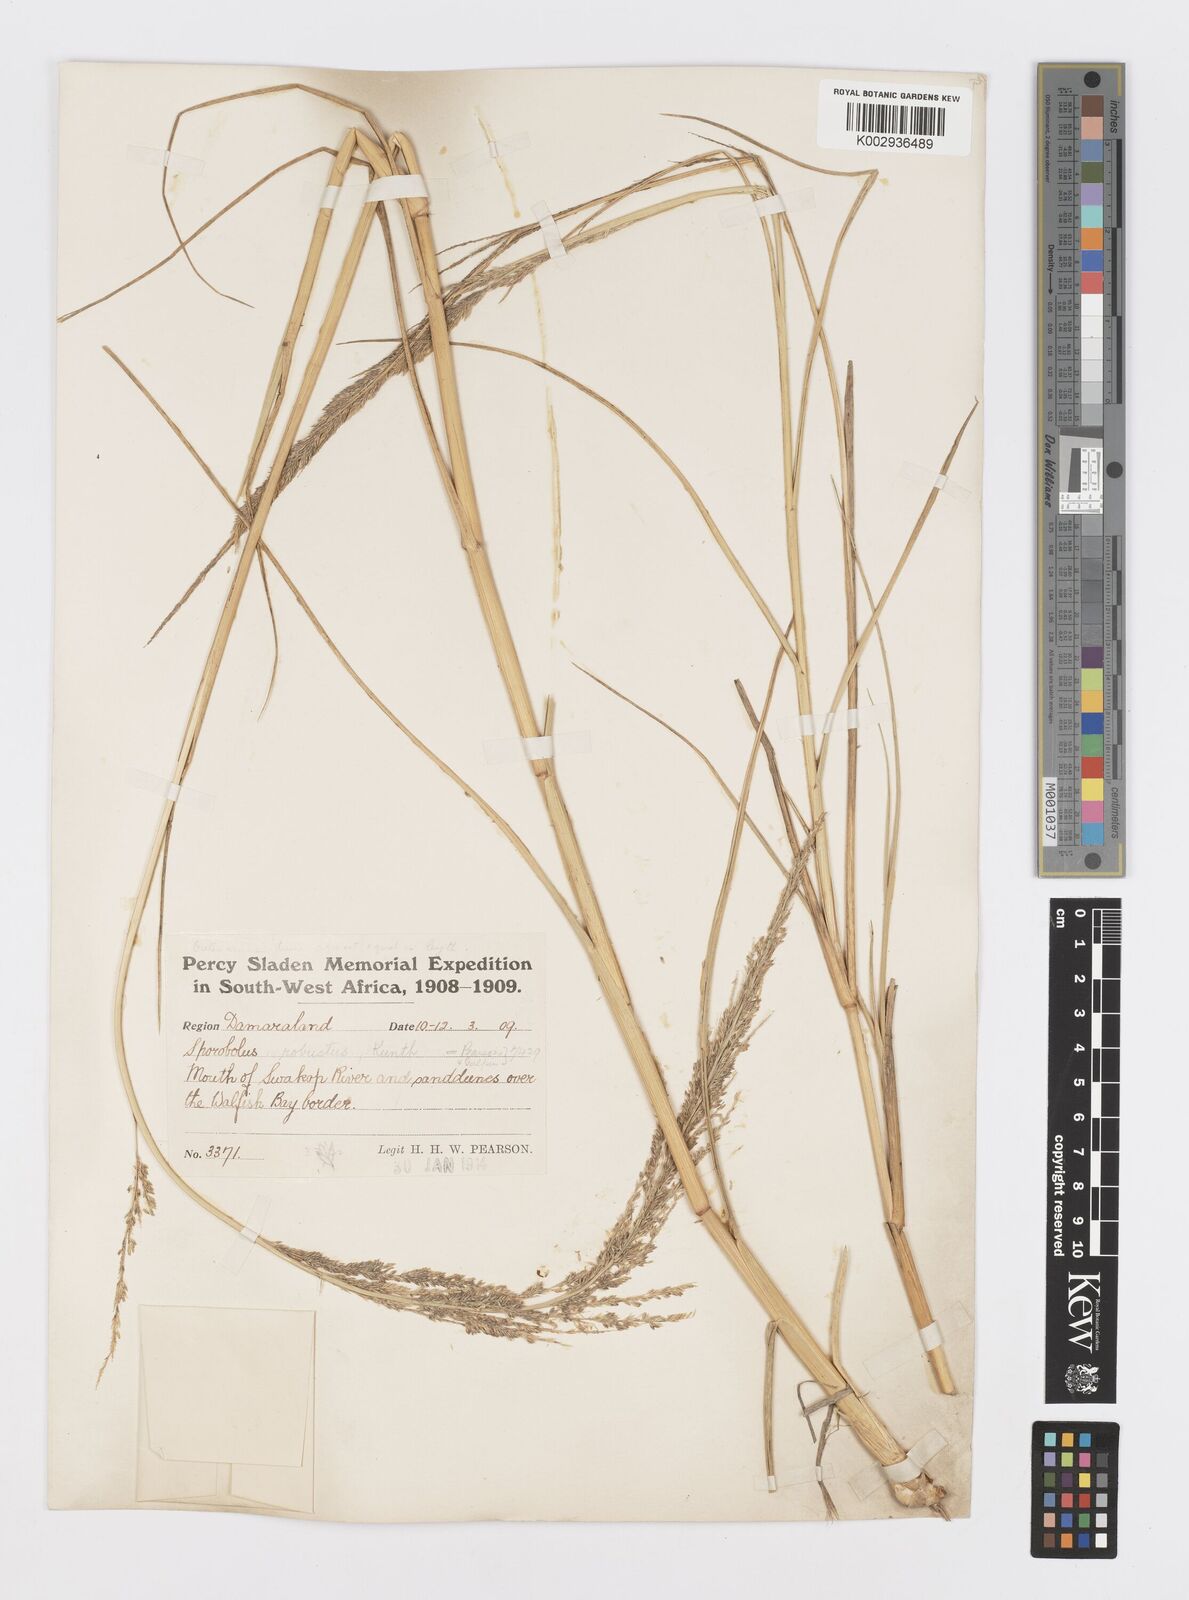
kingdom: Plantae
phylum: Tracheophyta
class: Liliopsida
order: Poales
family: Poaceae
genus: Sporobolus
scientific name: Sporobolus consimilis
